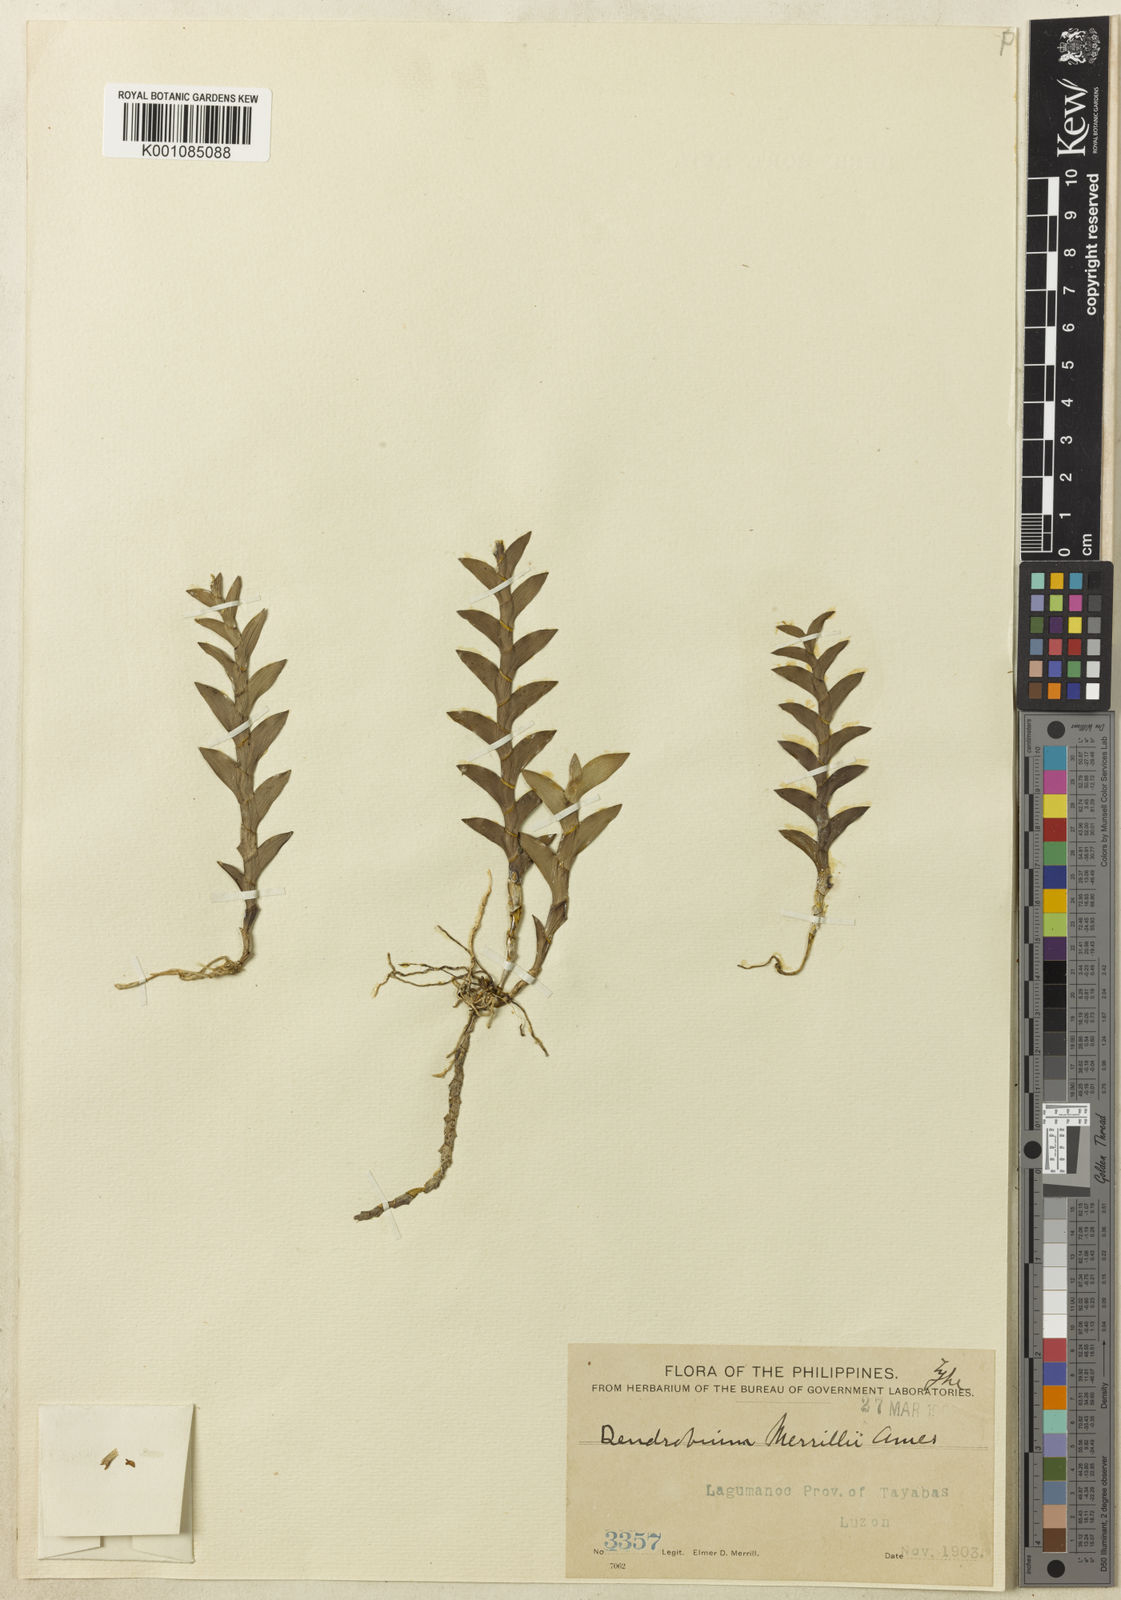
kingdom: Plantae
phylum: Tracheophyta
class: Liliopsida
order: Asparagales
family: Orchidaceae
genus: Dendrobium
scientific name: Dendrobium merrillii
